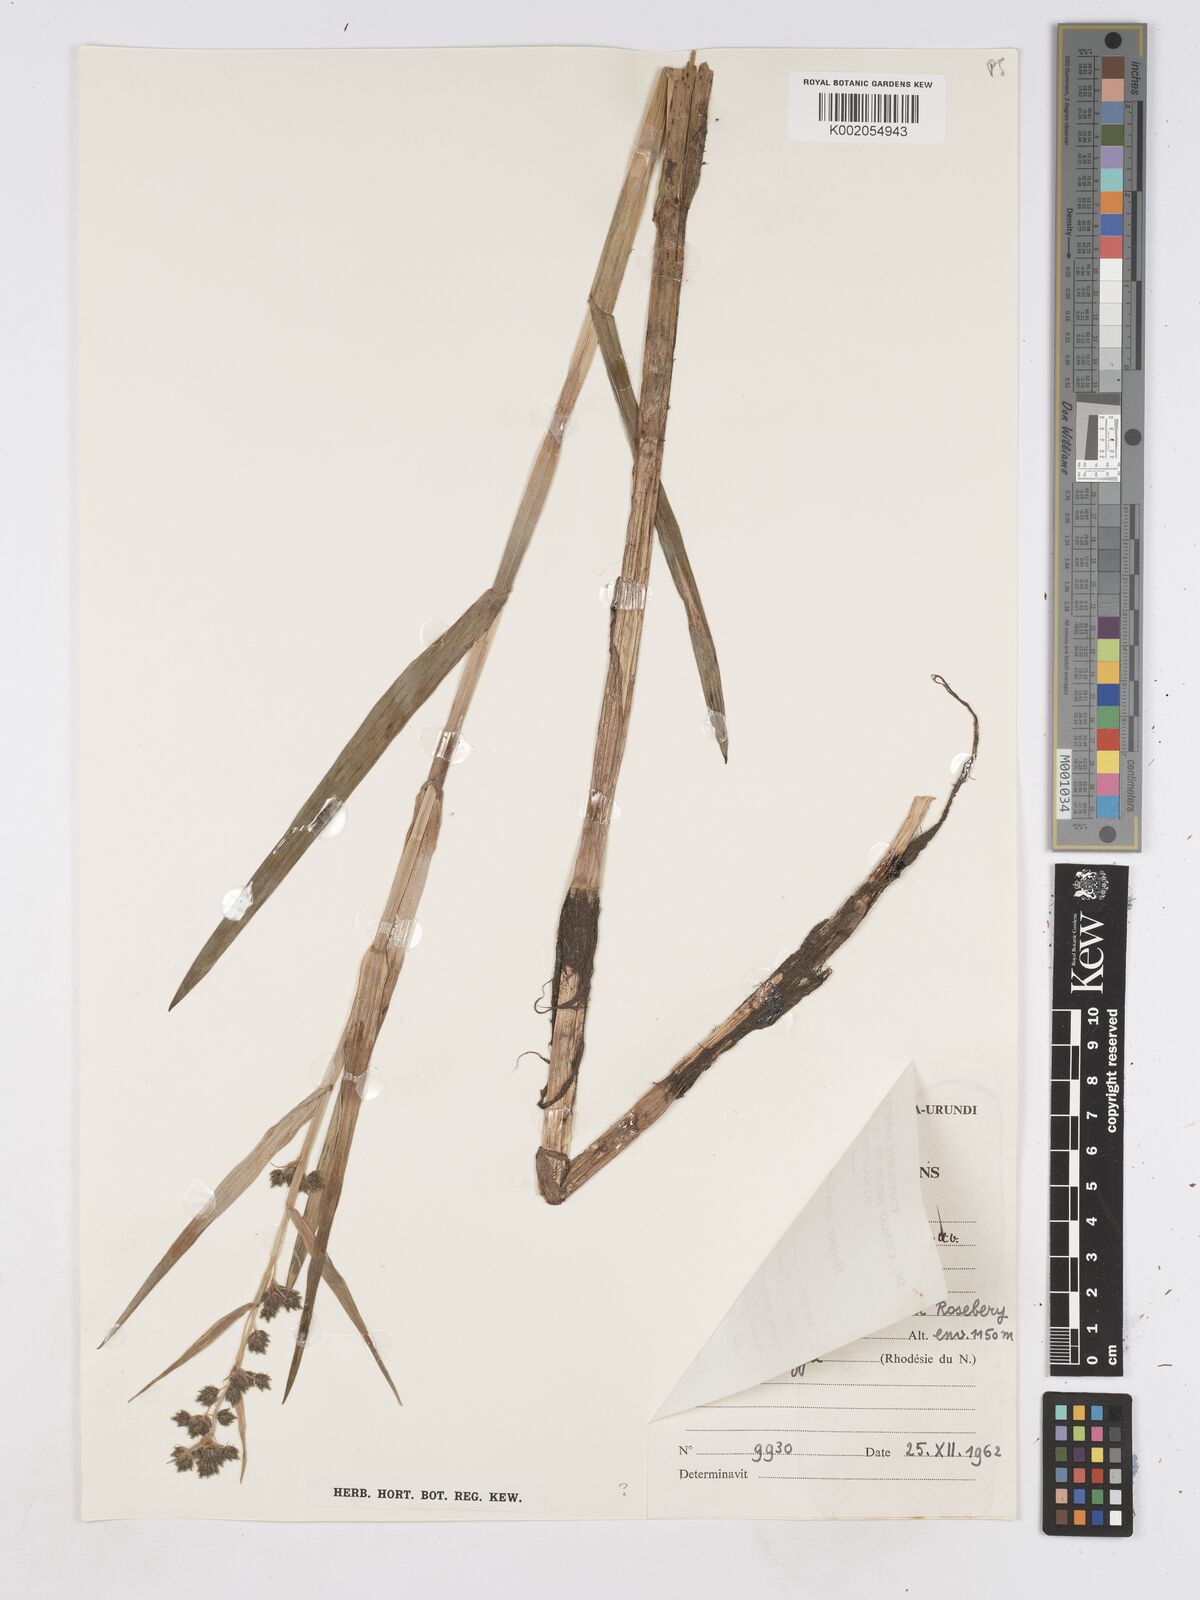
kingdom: Plantae
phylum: Tracheophyta
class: Liliopsida
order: Poales
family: Cyperaceae
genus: Fuirena
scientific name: Fuirena umbellata
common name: Yefen
